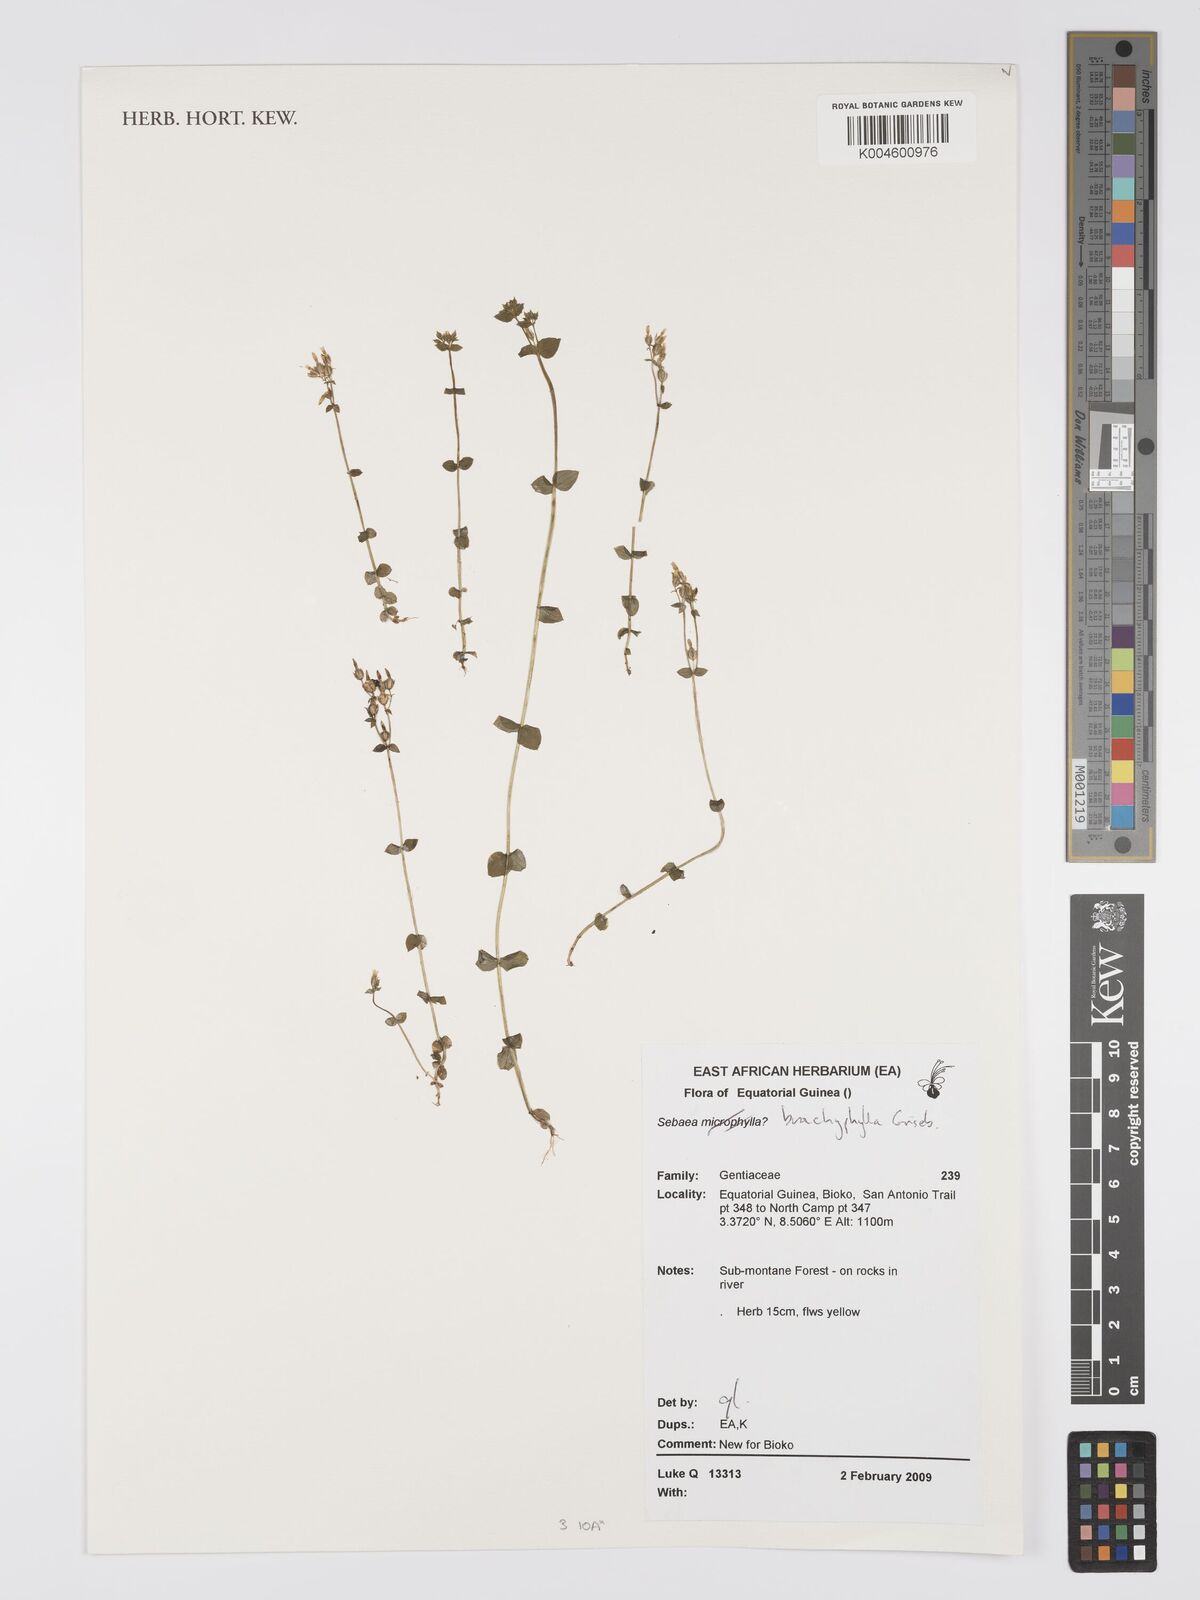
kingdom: Plantae
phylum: Tracheophyta
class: Magnoliopsida
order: Gentianales
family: Gentianaceae
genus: Sebaea
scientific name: Sebaea brachyphylla
